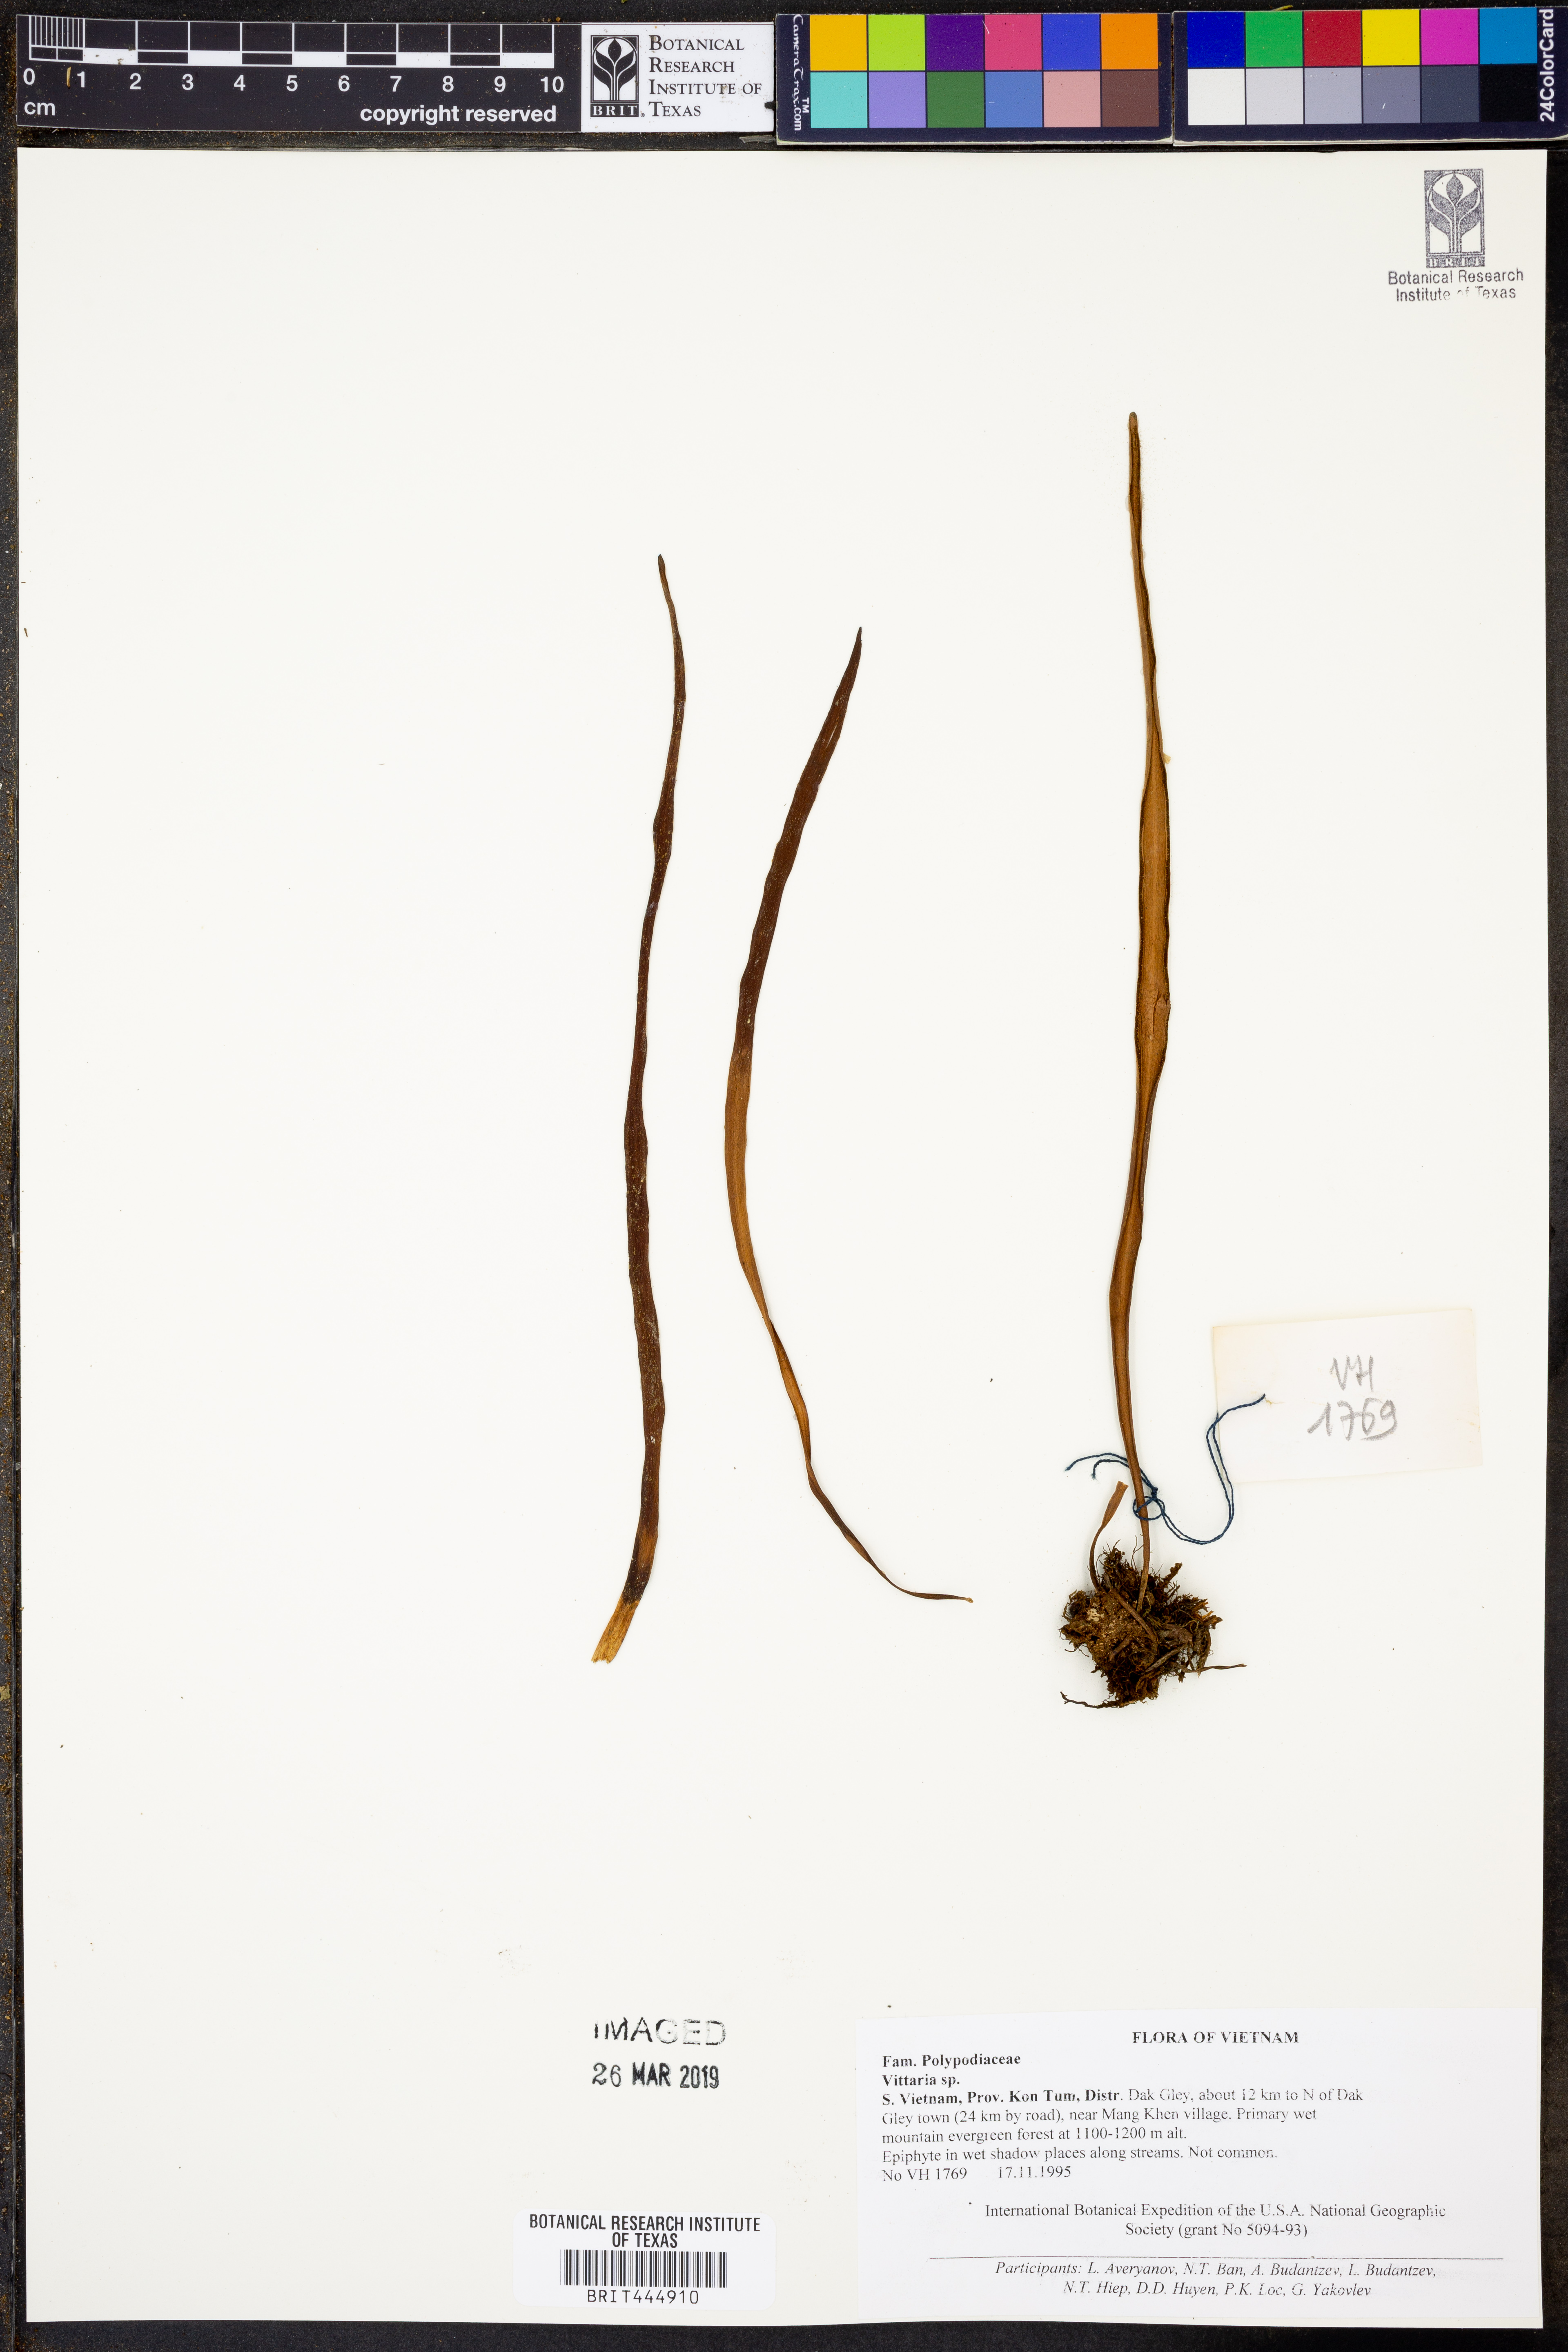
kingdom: Plantae
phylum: Tracheophyta
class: Polypodiopsida
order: Polypodiales
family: Pteridaceae
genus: Vittaria
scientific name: Vittaria
